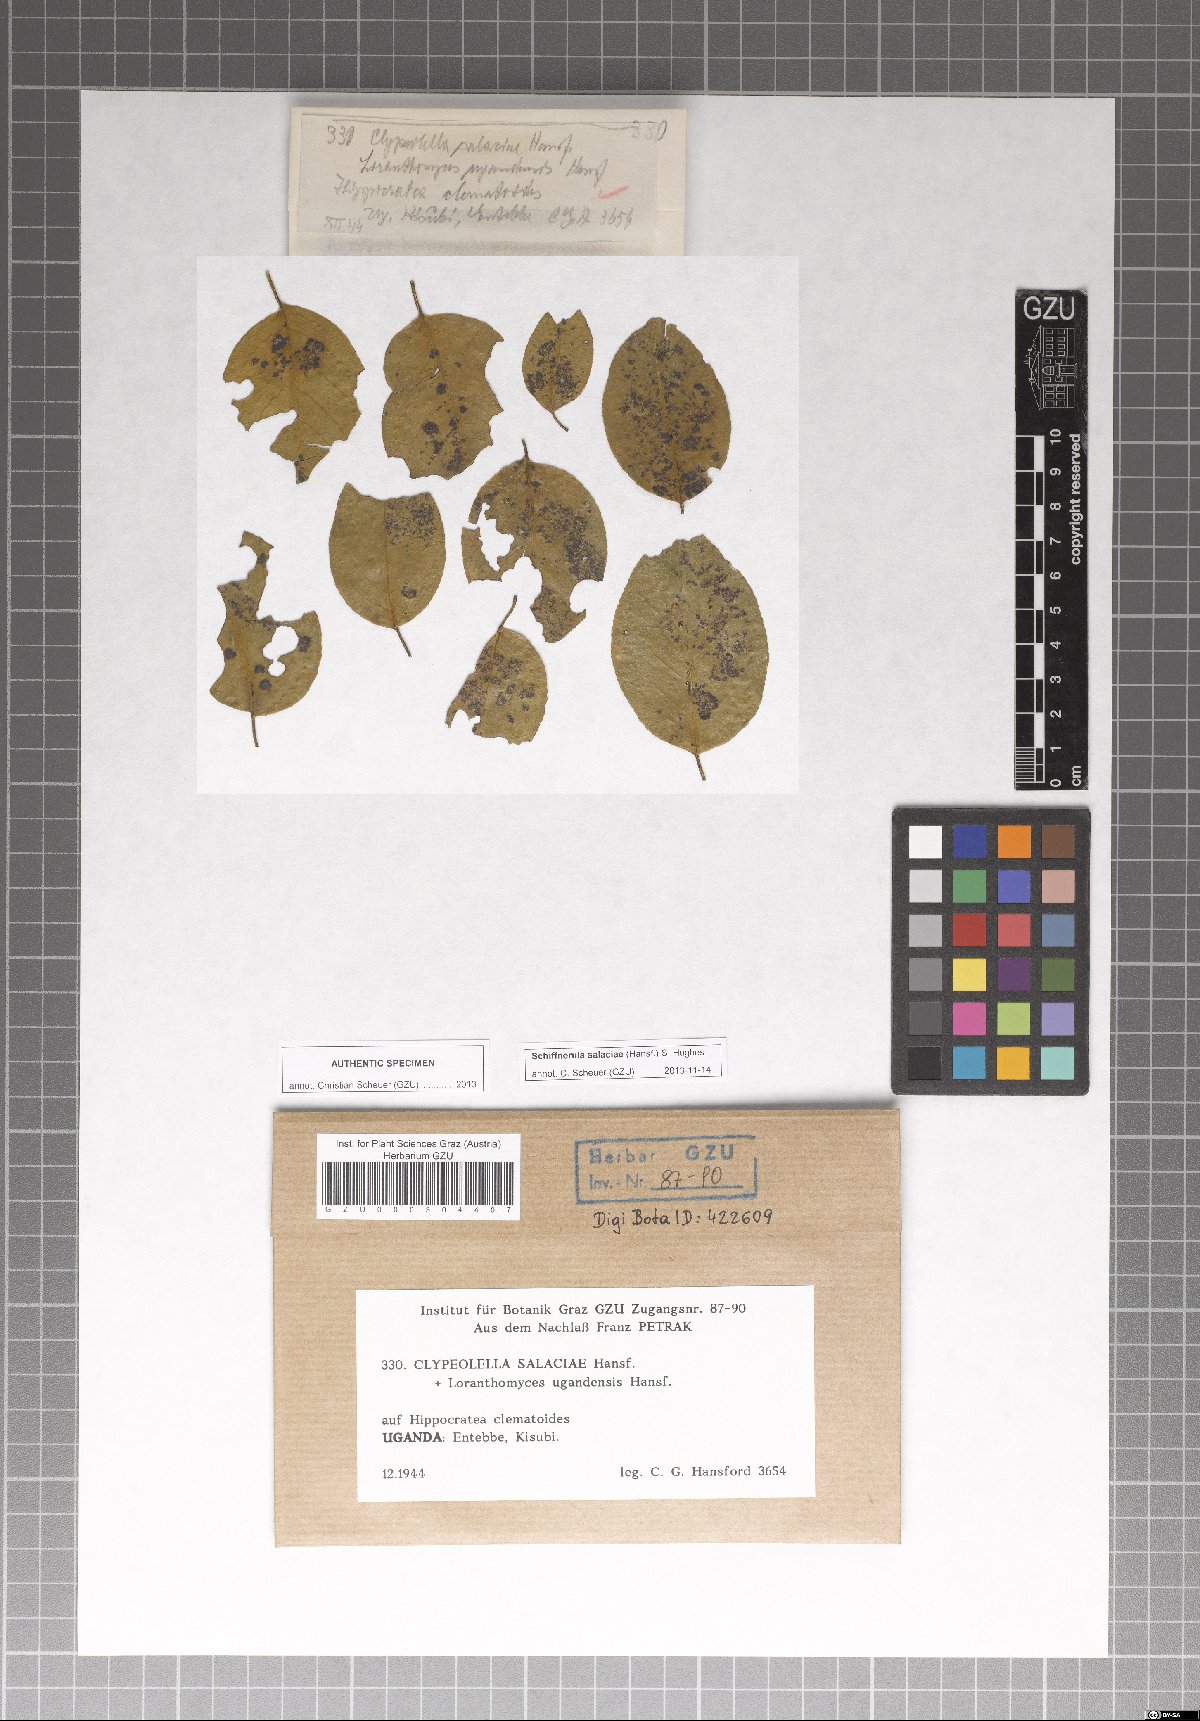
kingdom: Fungi
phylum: Ascomycota
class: Dothideomycetes
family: Englerulaceae
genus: Schiffnerula
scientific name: Schiffnerula salaciae
